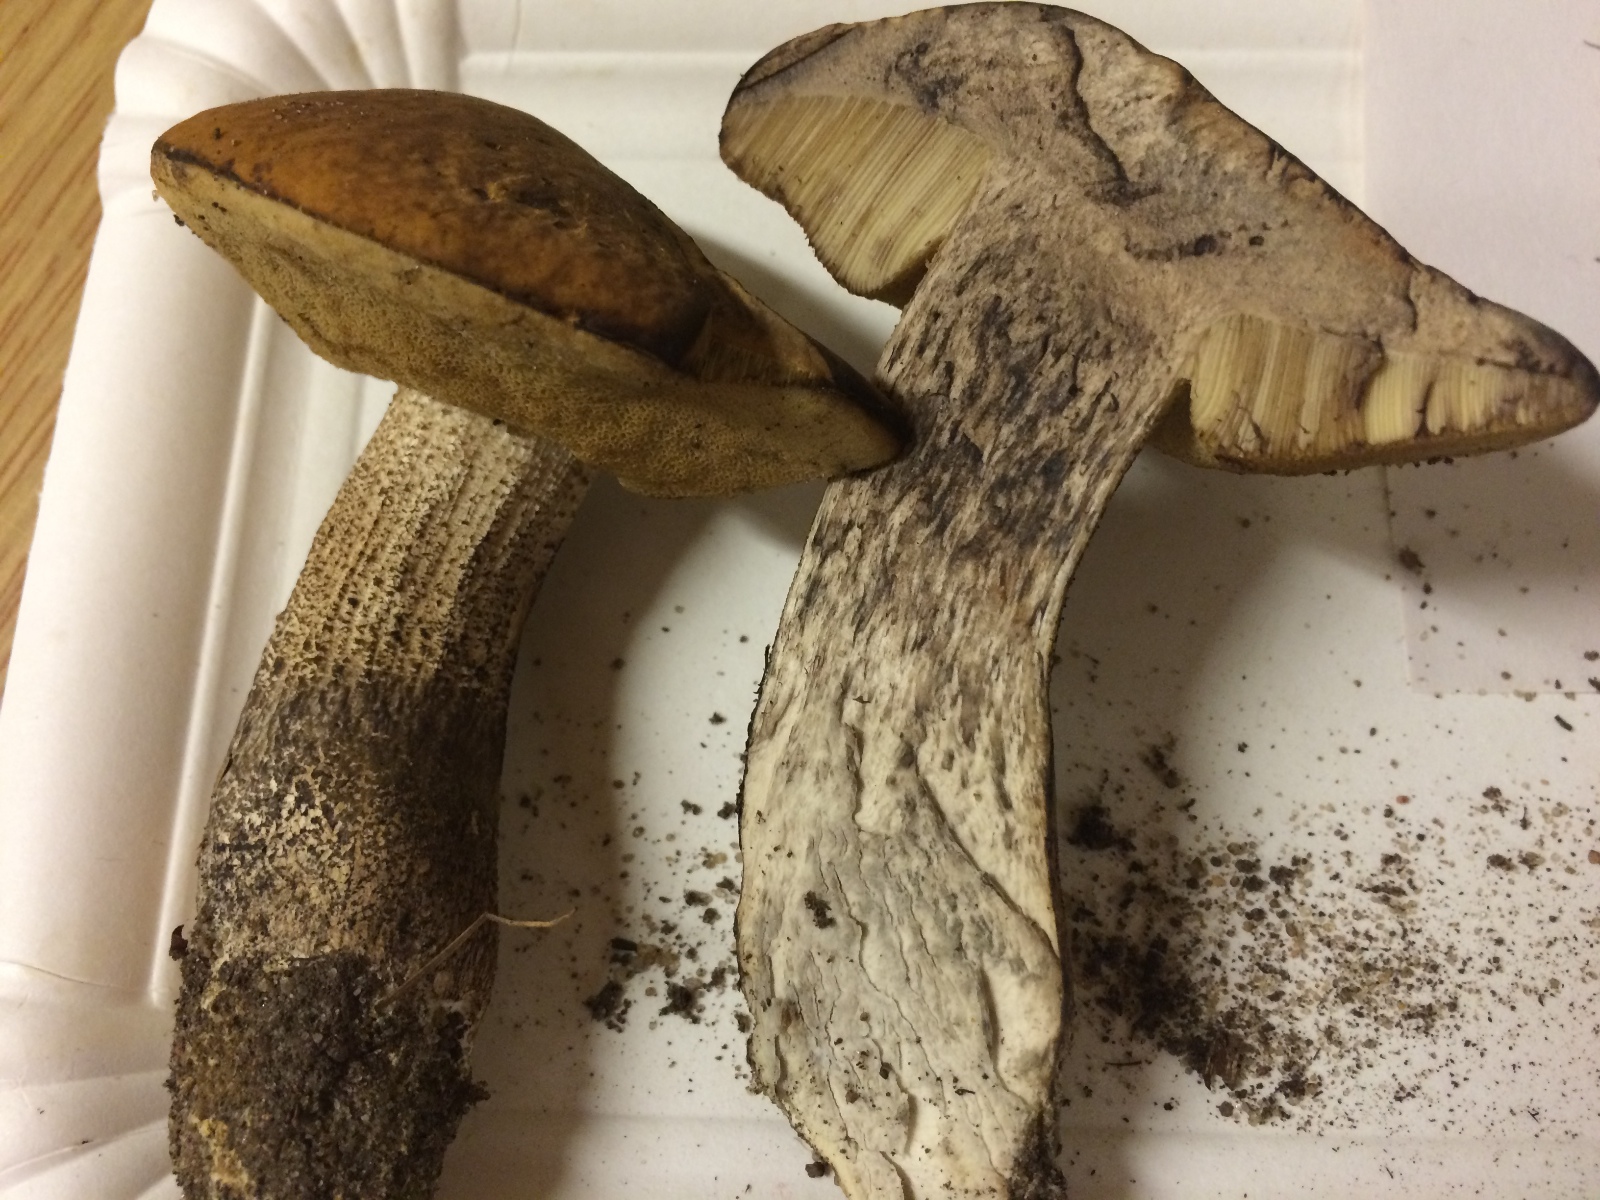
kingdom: Fungi
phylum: Basidiomycota
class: Agaricomycetes
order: Boletales
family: Boletaceae
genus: Leccinellum
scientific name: Leccinellum crocipodium
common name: gul skælrørhat
